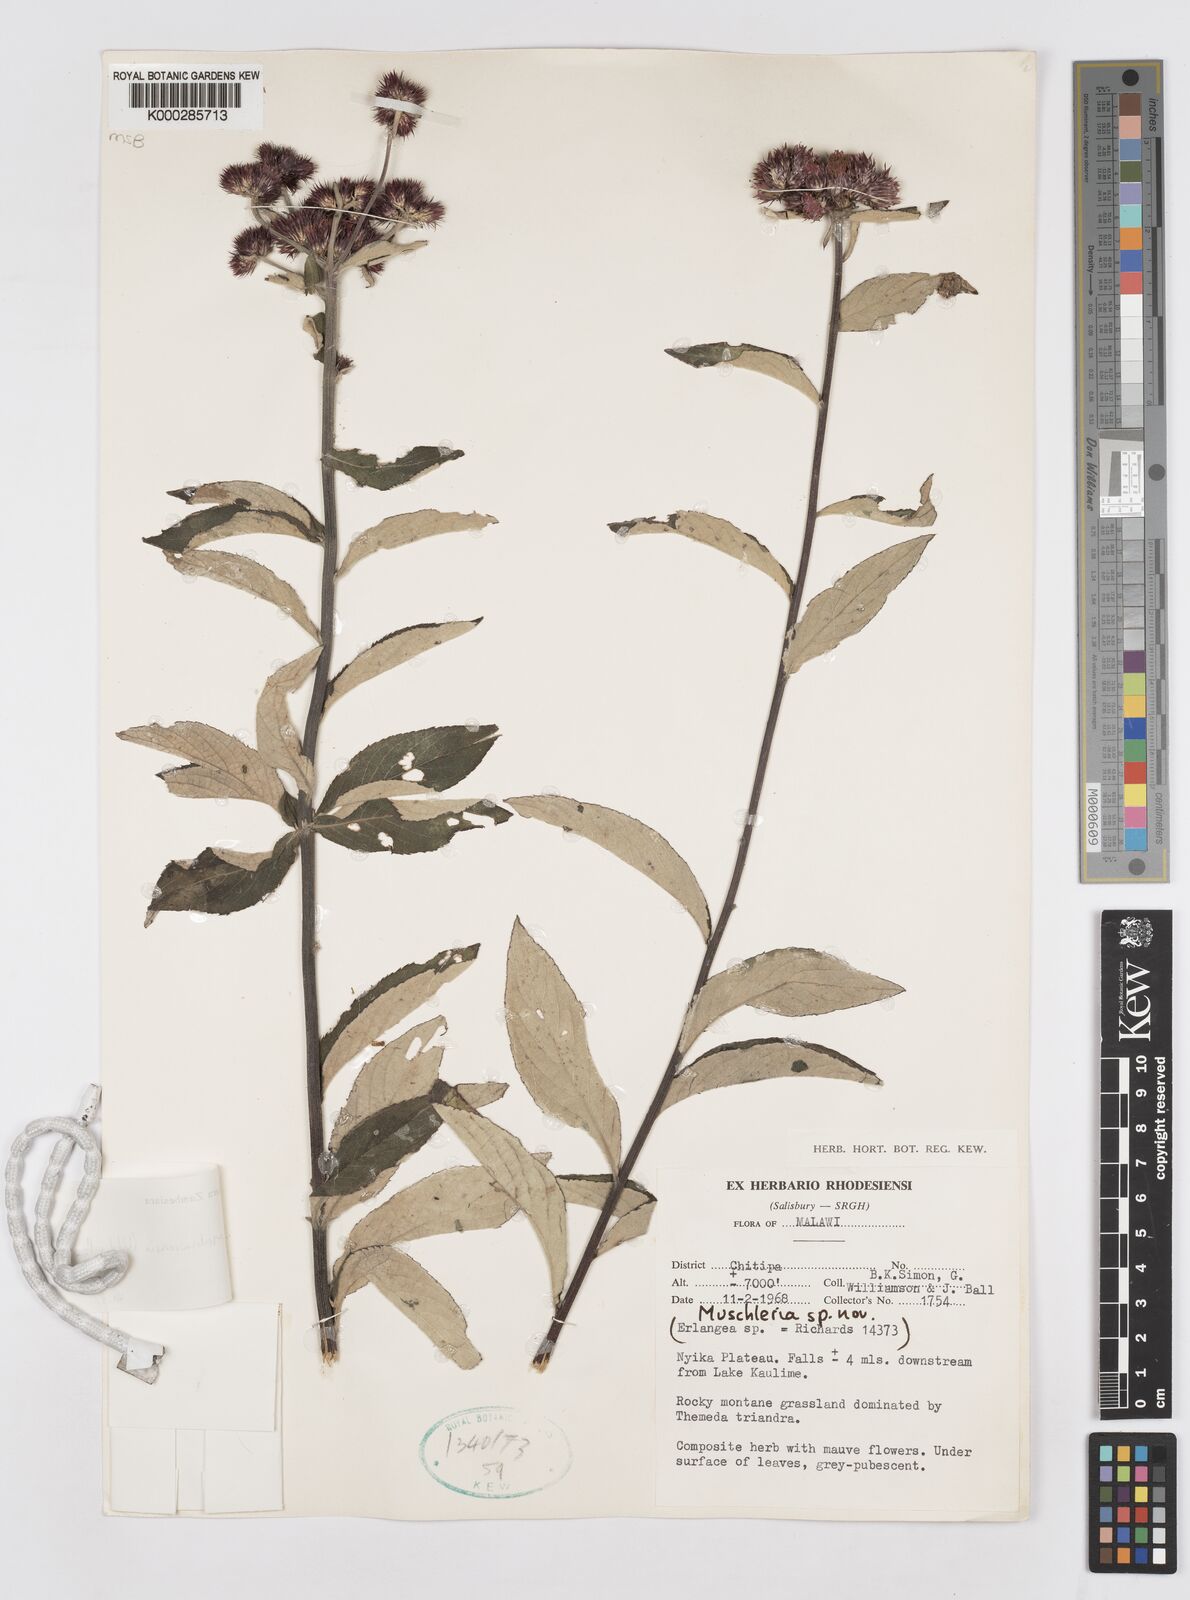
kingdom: Plantae
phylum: Tracheophyta
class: Magnoliopsida
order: Asterales
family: Asteraceae
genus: Brachythrix
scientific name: Brachythrix malawiensis
